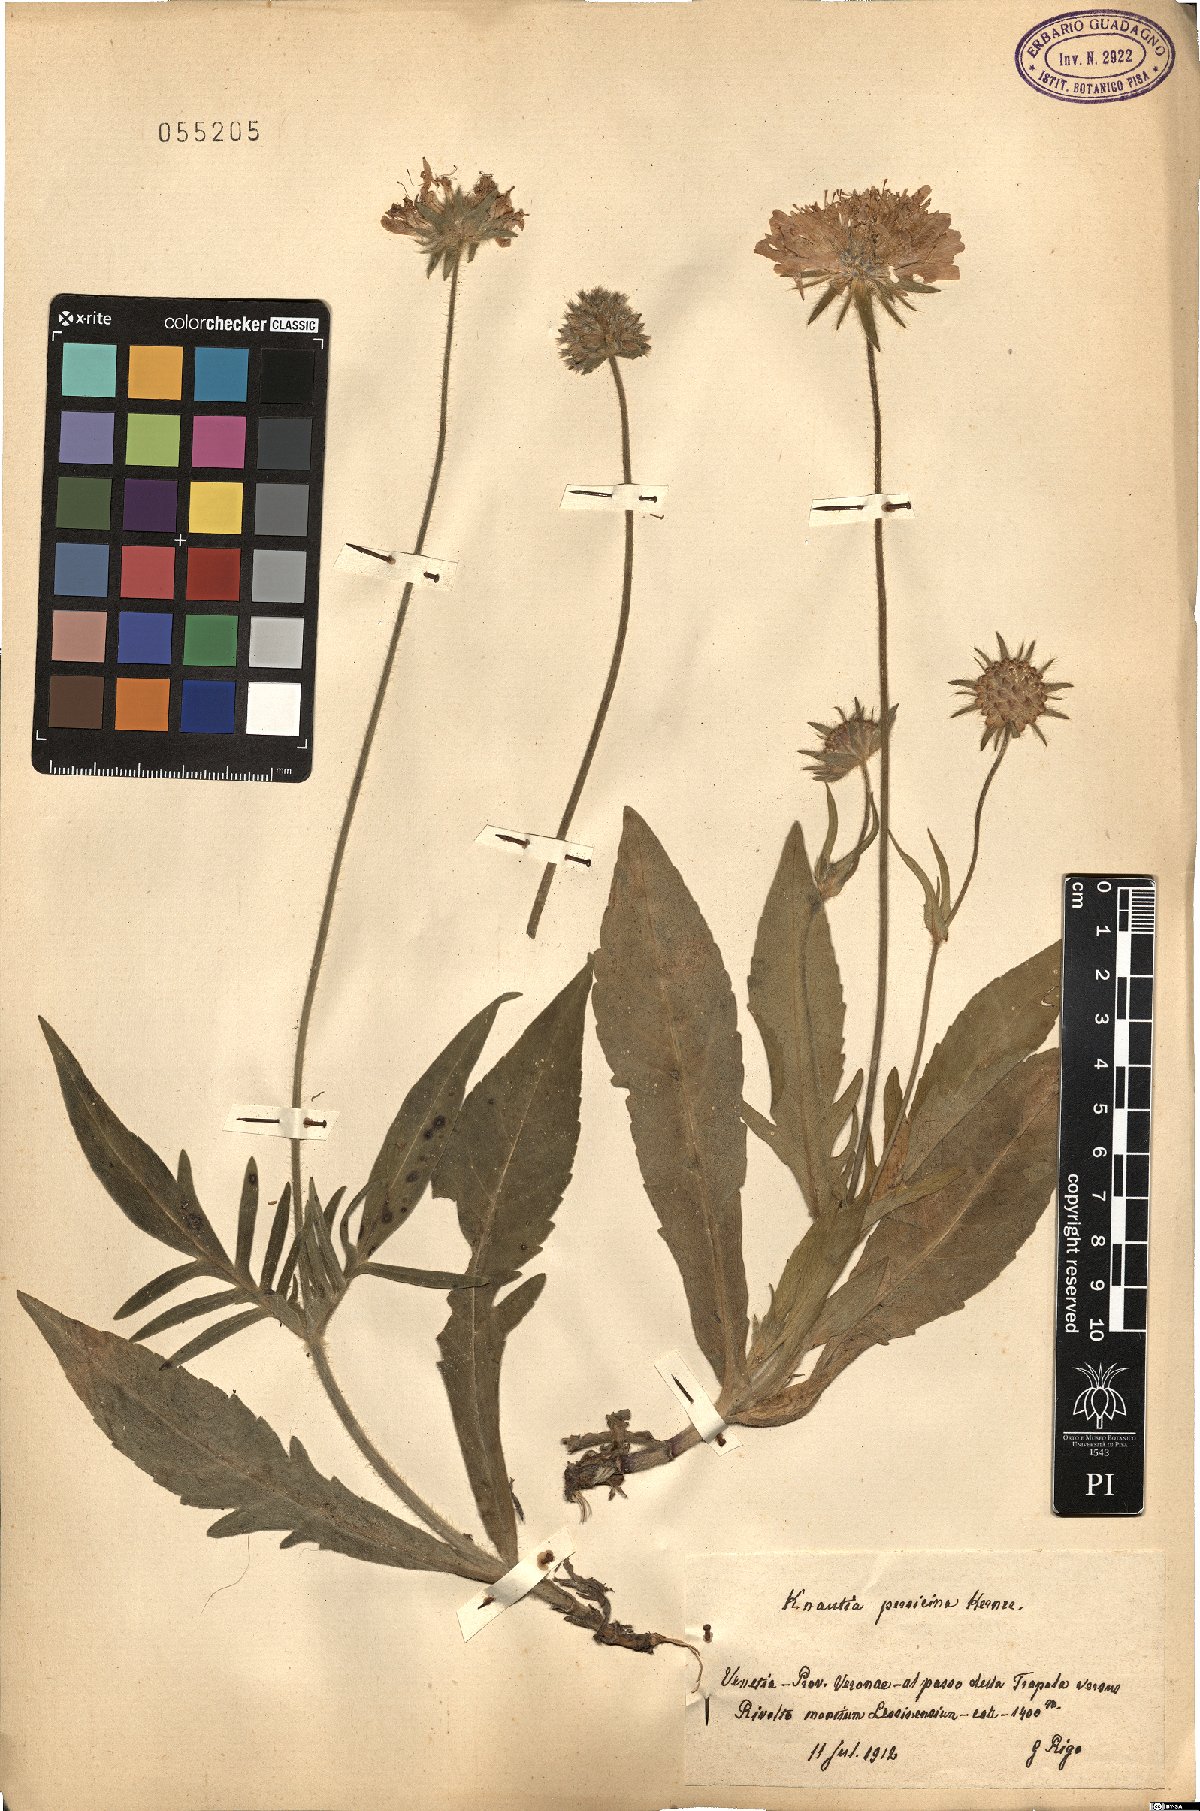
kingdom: Plantae
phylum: Tracheophyta
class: Magnoliopsida
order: Dipsacales
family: Caprifoliaceae
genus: Knautia
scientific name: Knautia persicina
